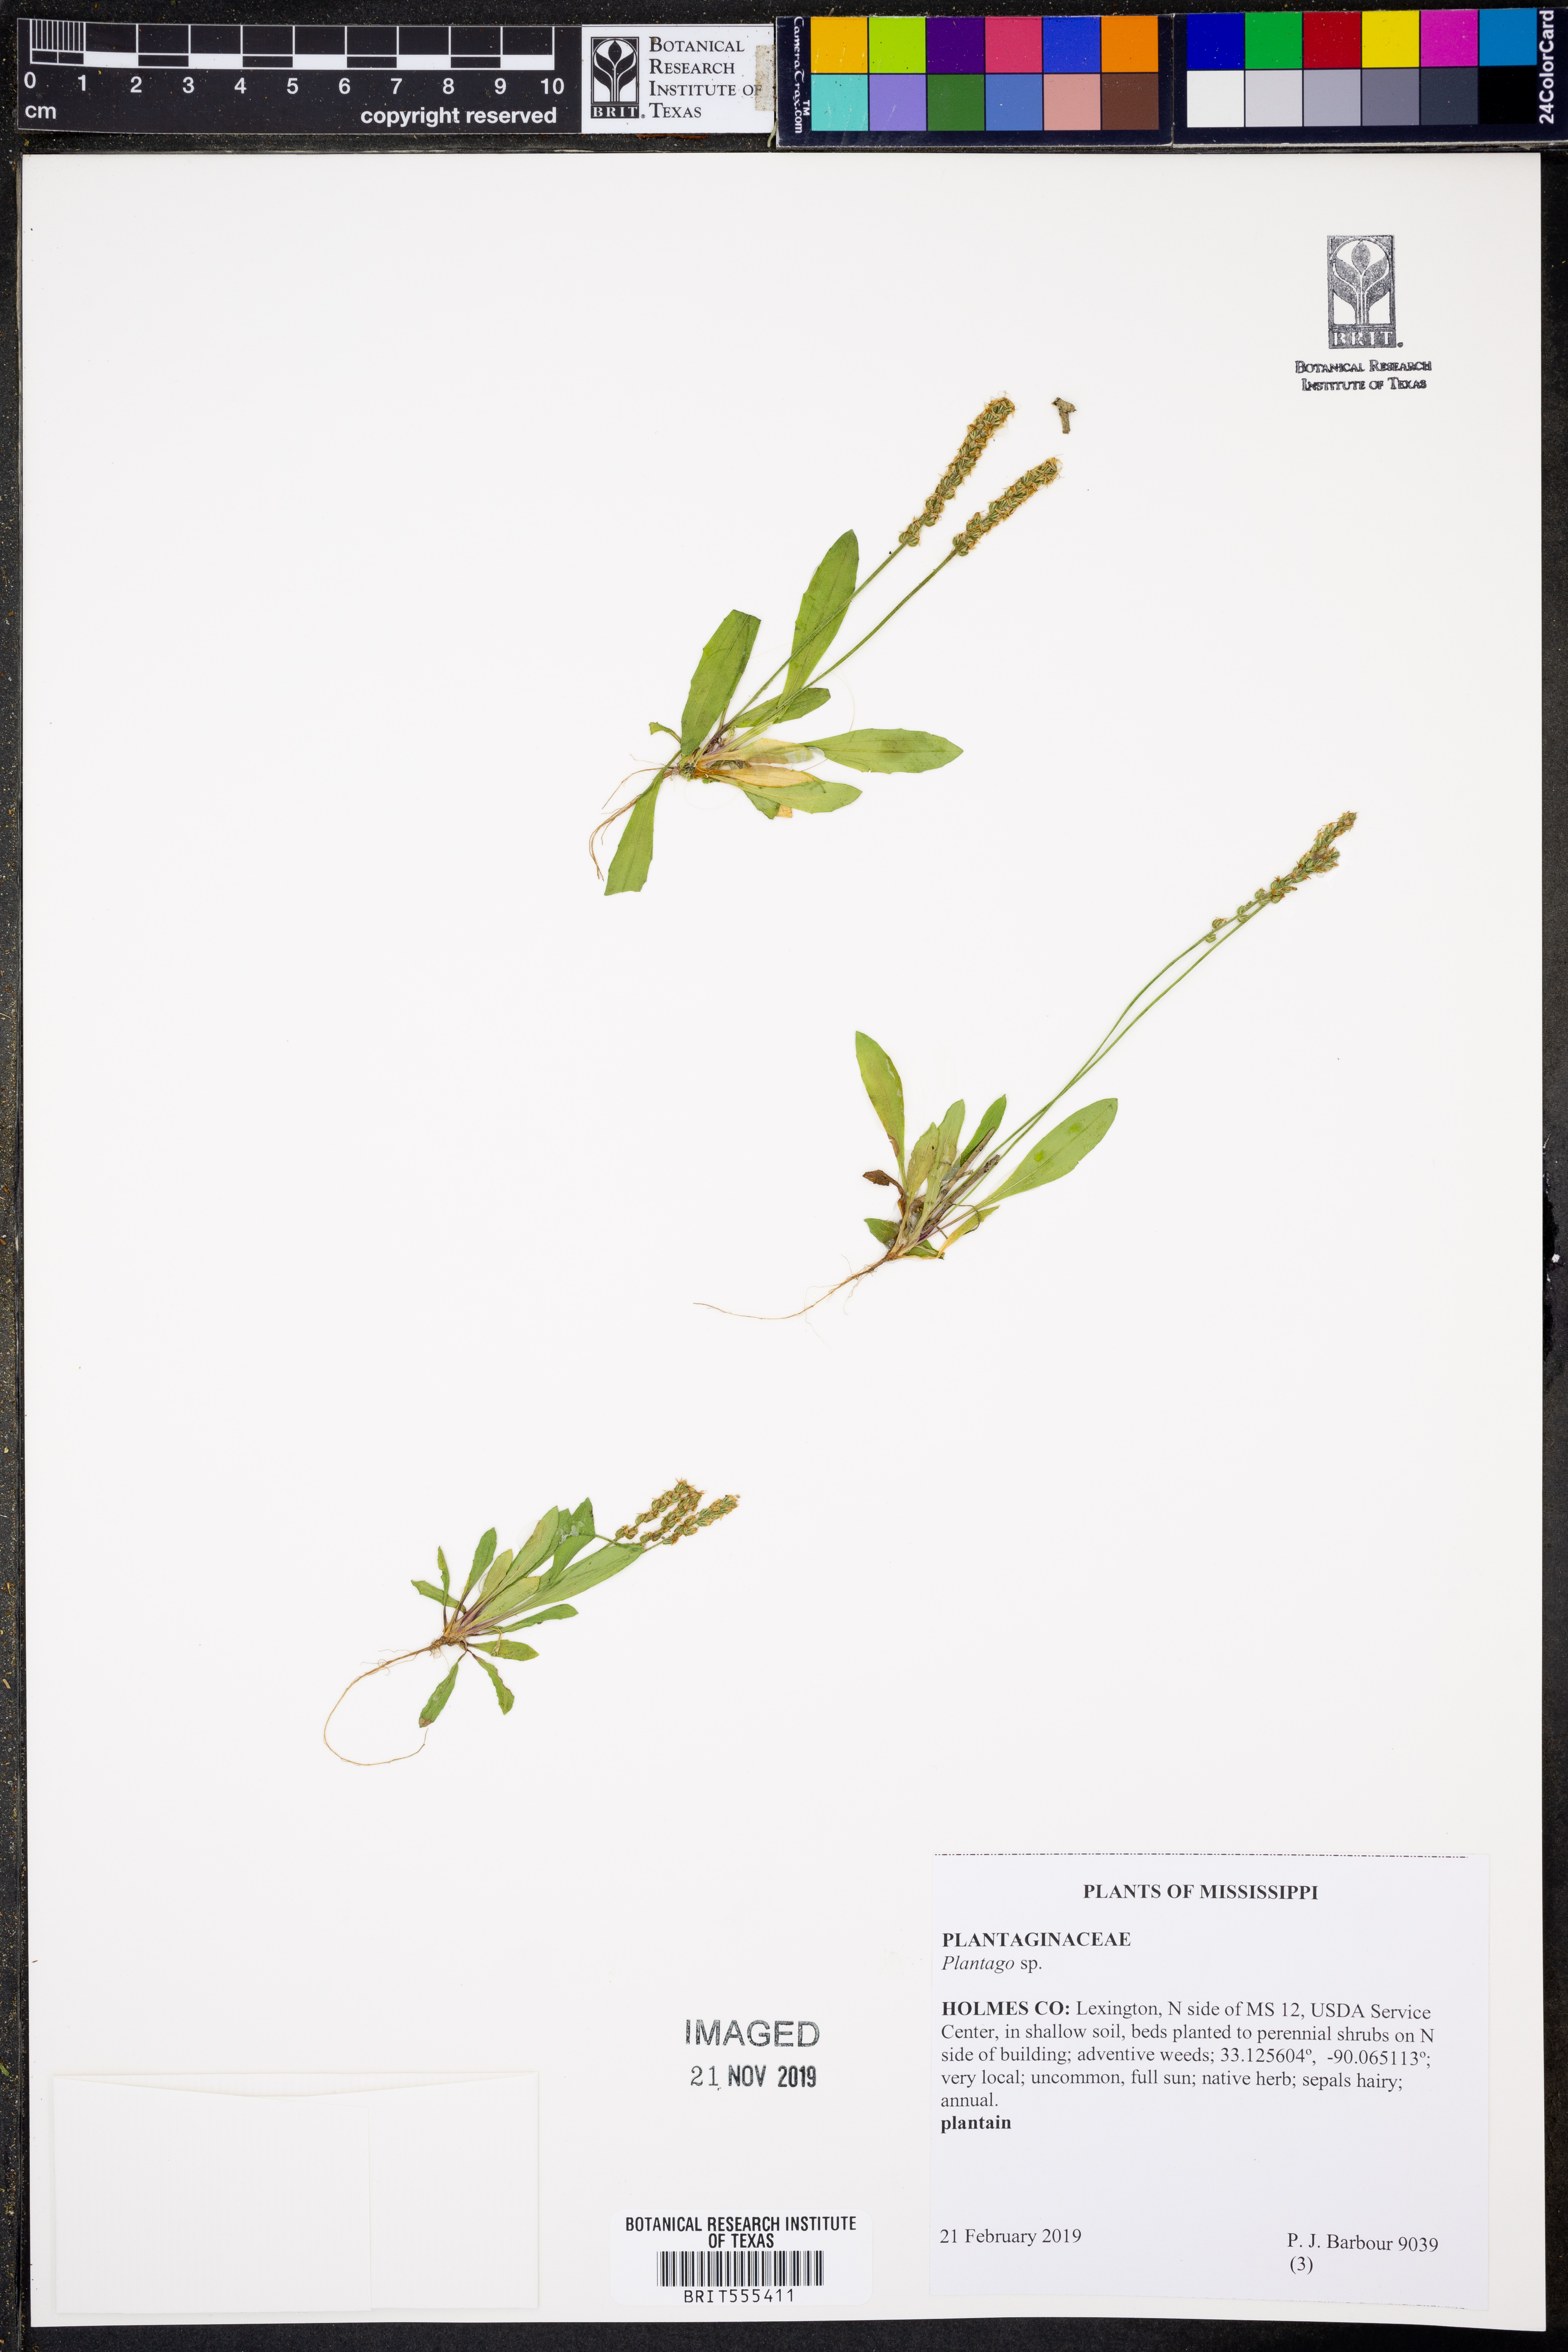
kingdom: Plantae
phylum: Tracheophyta
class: Magnoliopsida
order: Lamiales
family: Plantaginaceae
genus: Plantago
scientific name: Plantago
